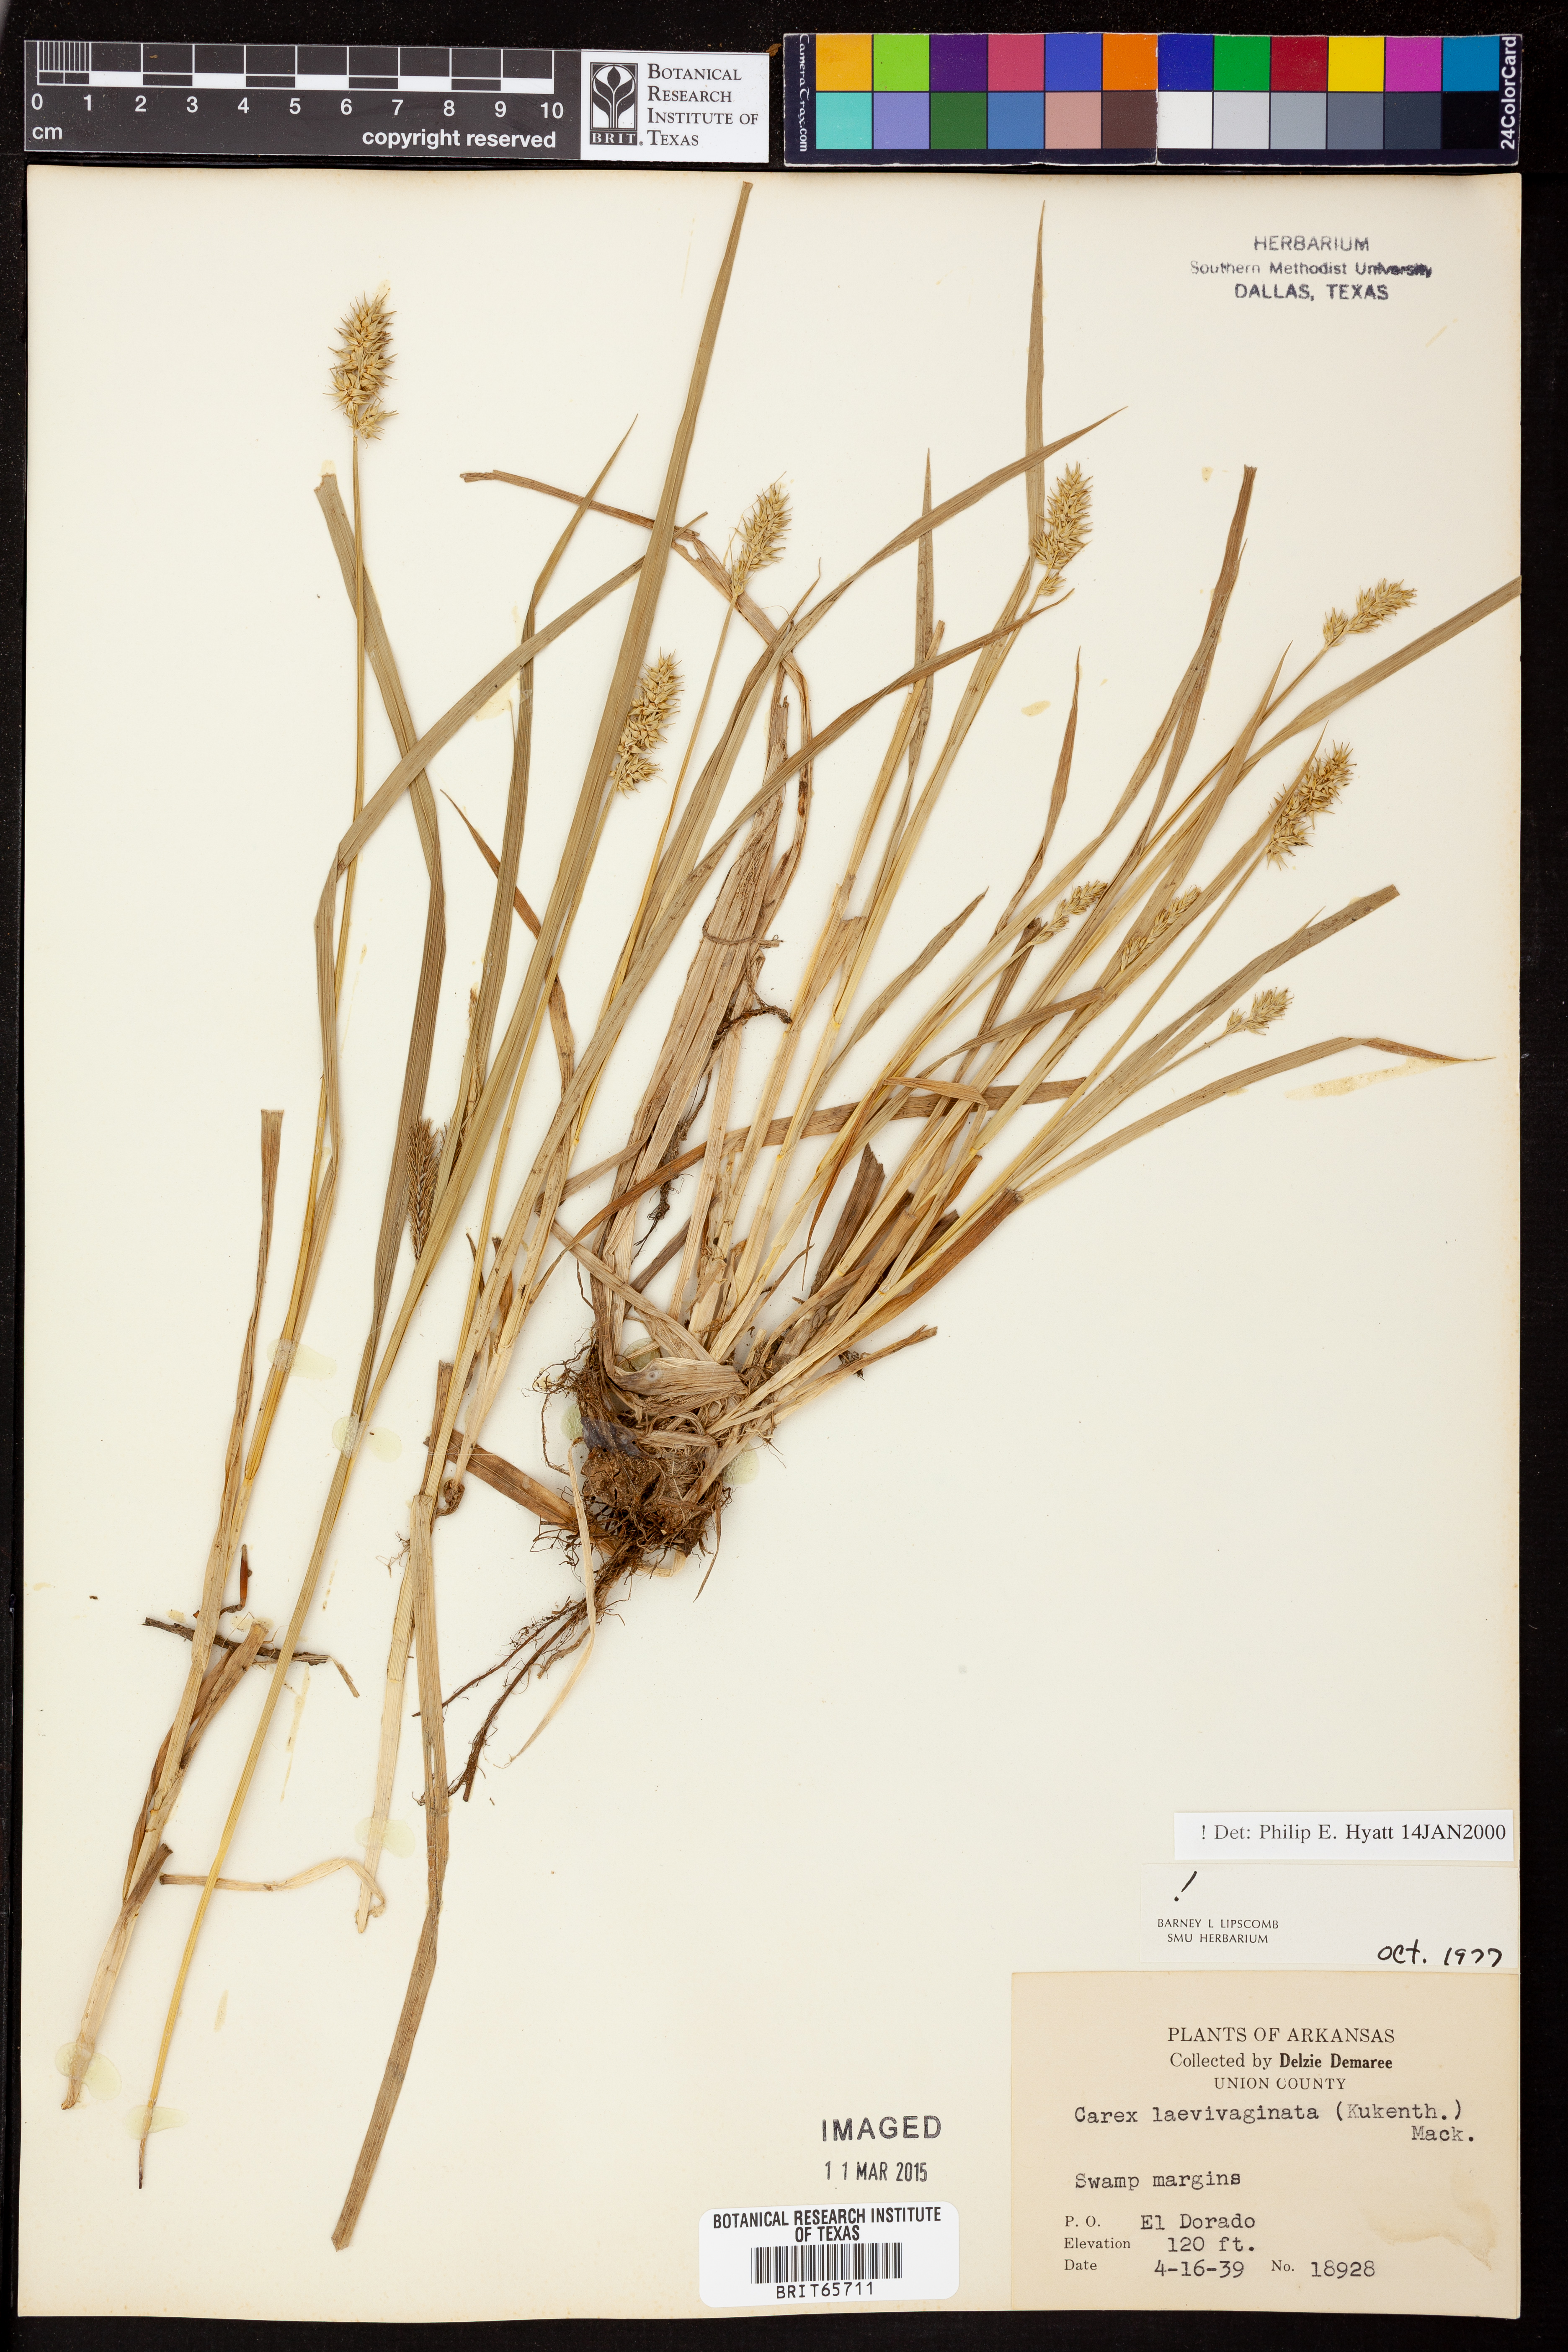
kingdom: Plantae
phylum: Tracheophyta
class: Liliopsida
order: Poales
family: Cyperaceae
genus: Carex
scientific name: Carex laevivaginata
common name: Smooth-sheathed fox sedge
